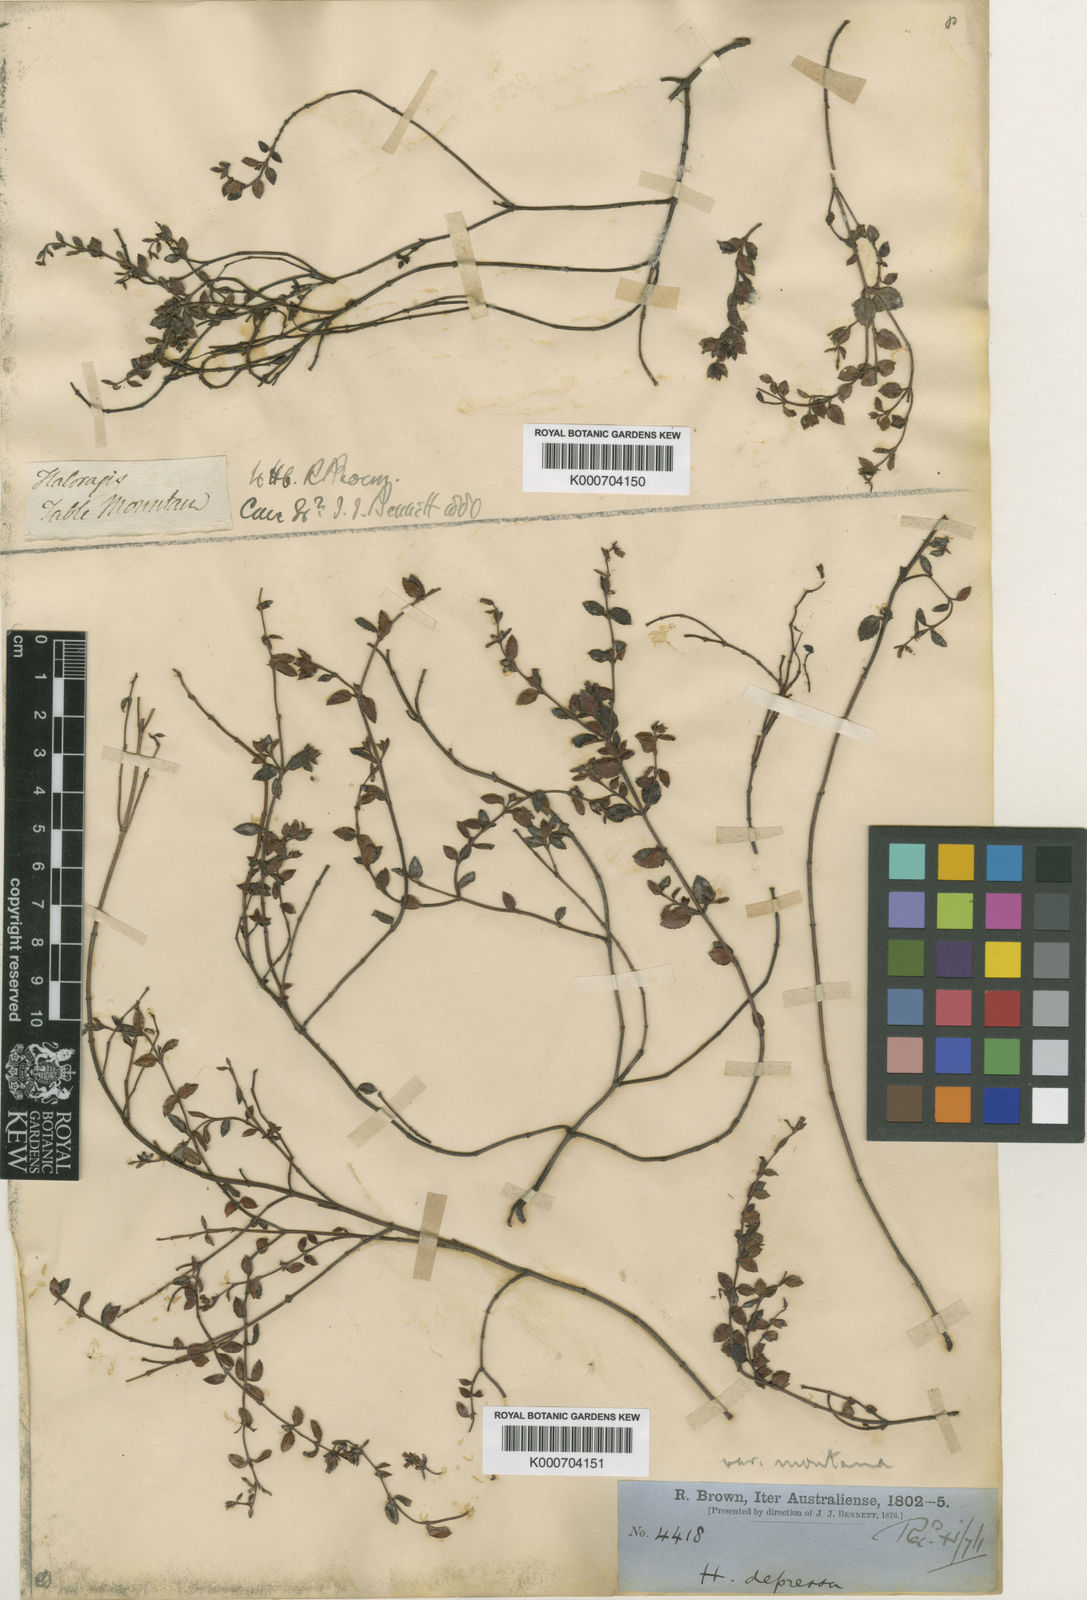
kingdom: Plantae
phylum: Tracheophyta
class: Magnoliopsida
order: Saxifragales
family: Haloragaceae
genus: Gonocarpus
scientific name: Gonocarpus montanus
